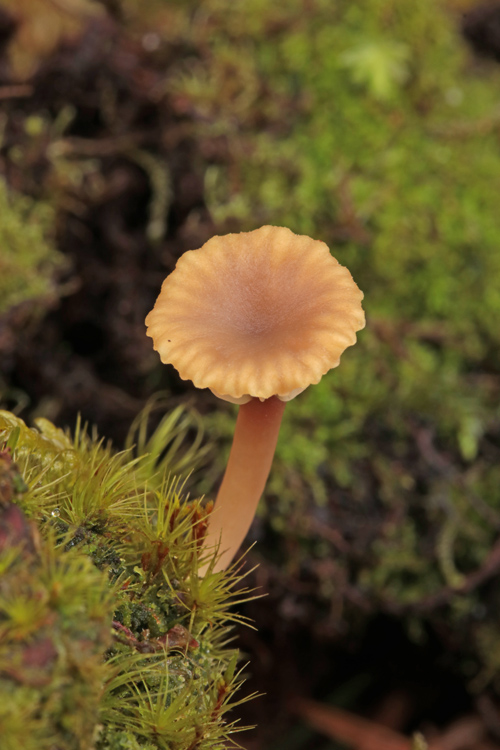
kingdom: Fungi
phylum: Basidiomycota
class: Agaricomycetes
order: Agaricales
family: Hygrophoraceae
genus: Lichenomphalia
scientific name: Lichenomphalia umbellifera
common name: tørve-lavhat
